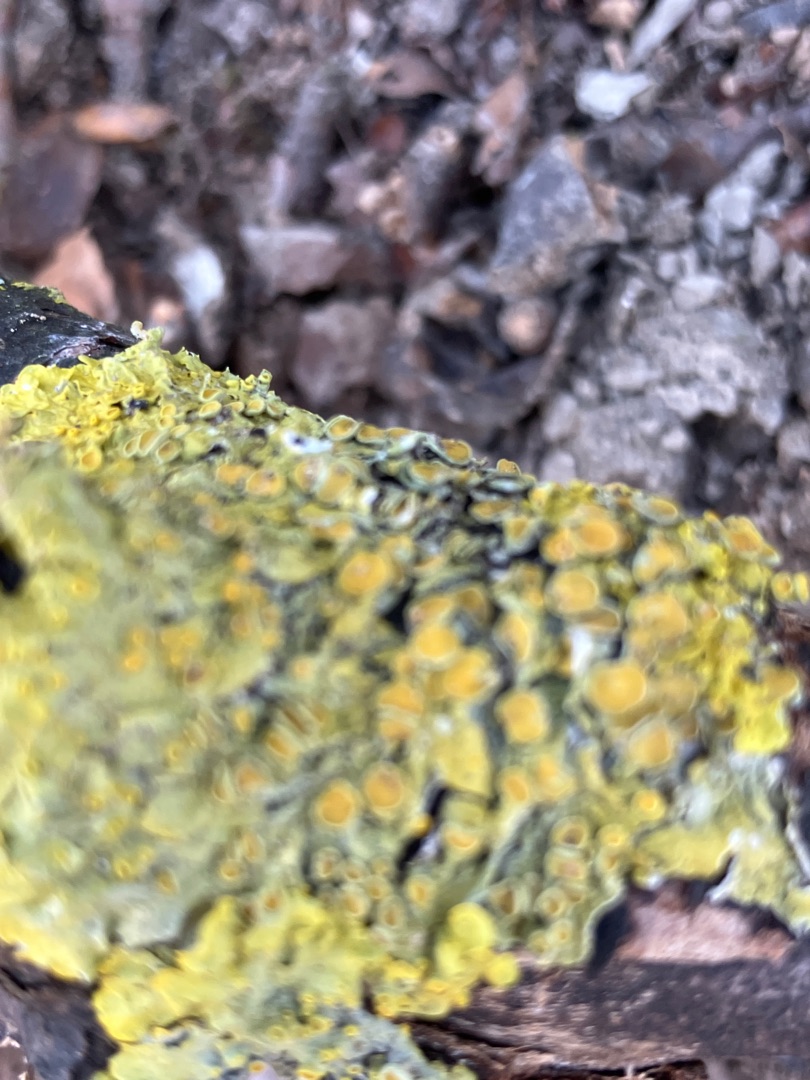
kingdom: Fungi
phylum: Ascomycota
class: Lecanoromycetes
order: Teloschistales
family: Teloschistaceae
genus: Xanthoria
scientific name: Xanthoria parietina
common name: Almindelig væggelav
